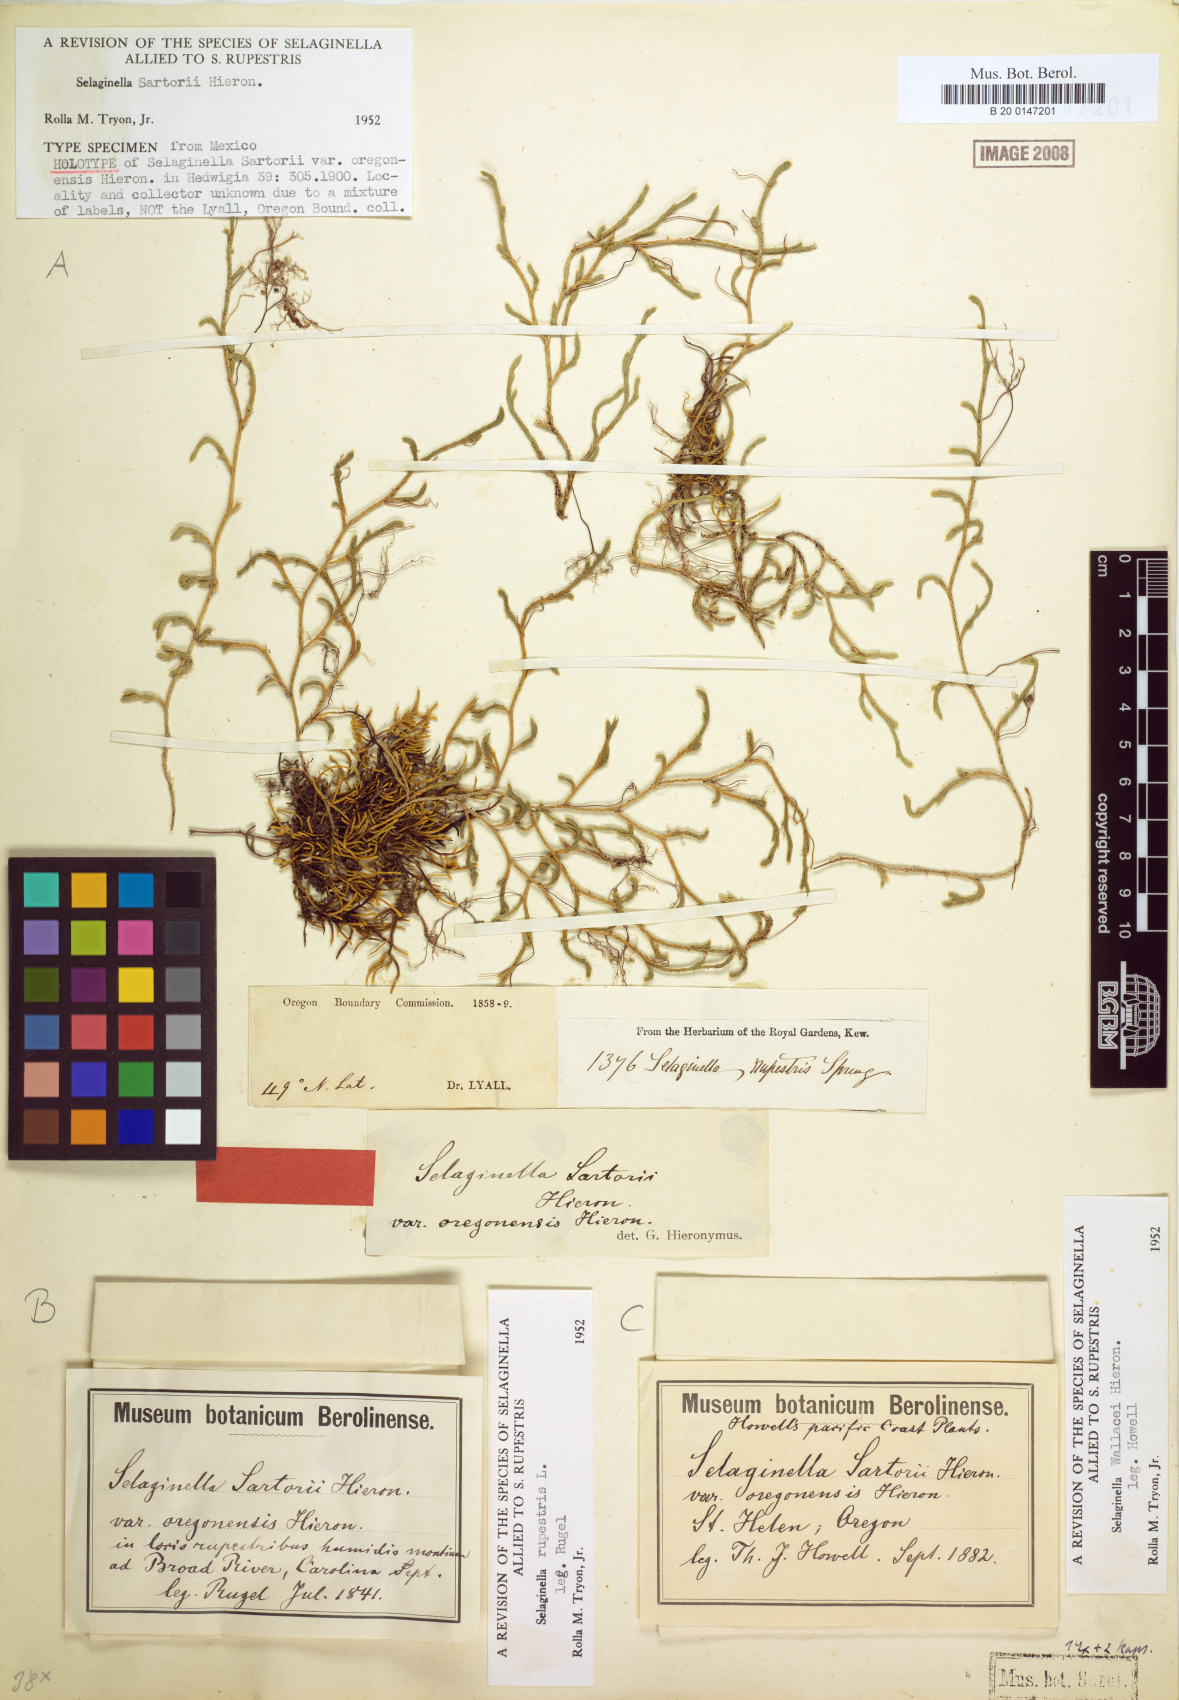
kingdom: Plantae
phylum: Tracheophyta
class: Lycopodiopsida
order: Selaginellales
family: Selaginellaceae
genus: Selaginella
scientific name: Selaginella sartorii
